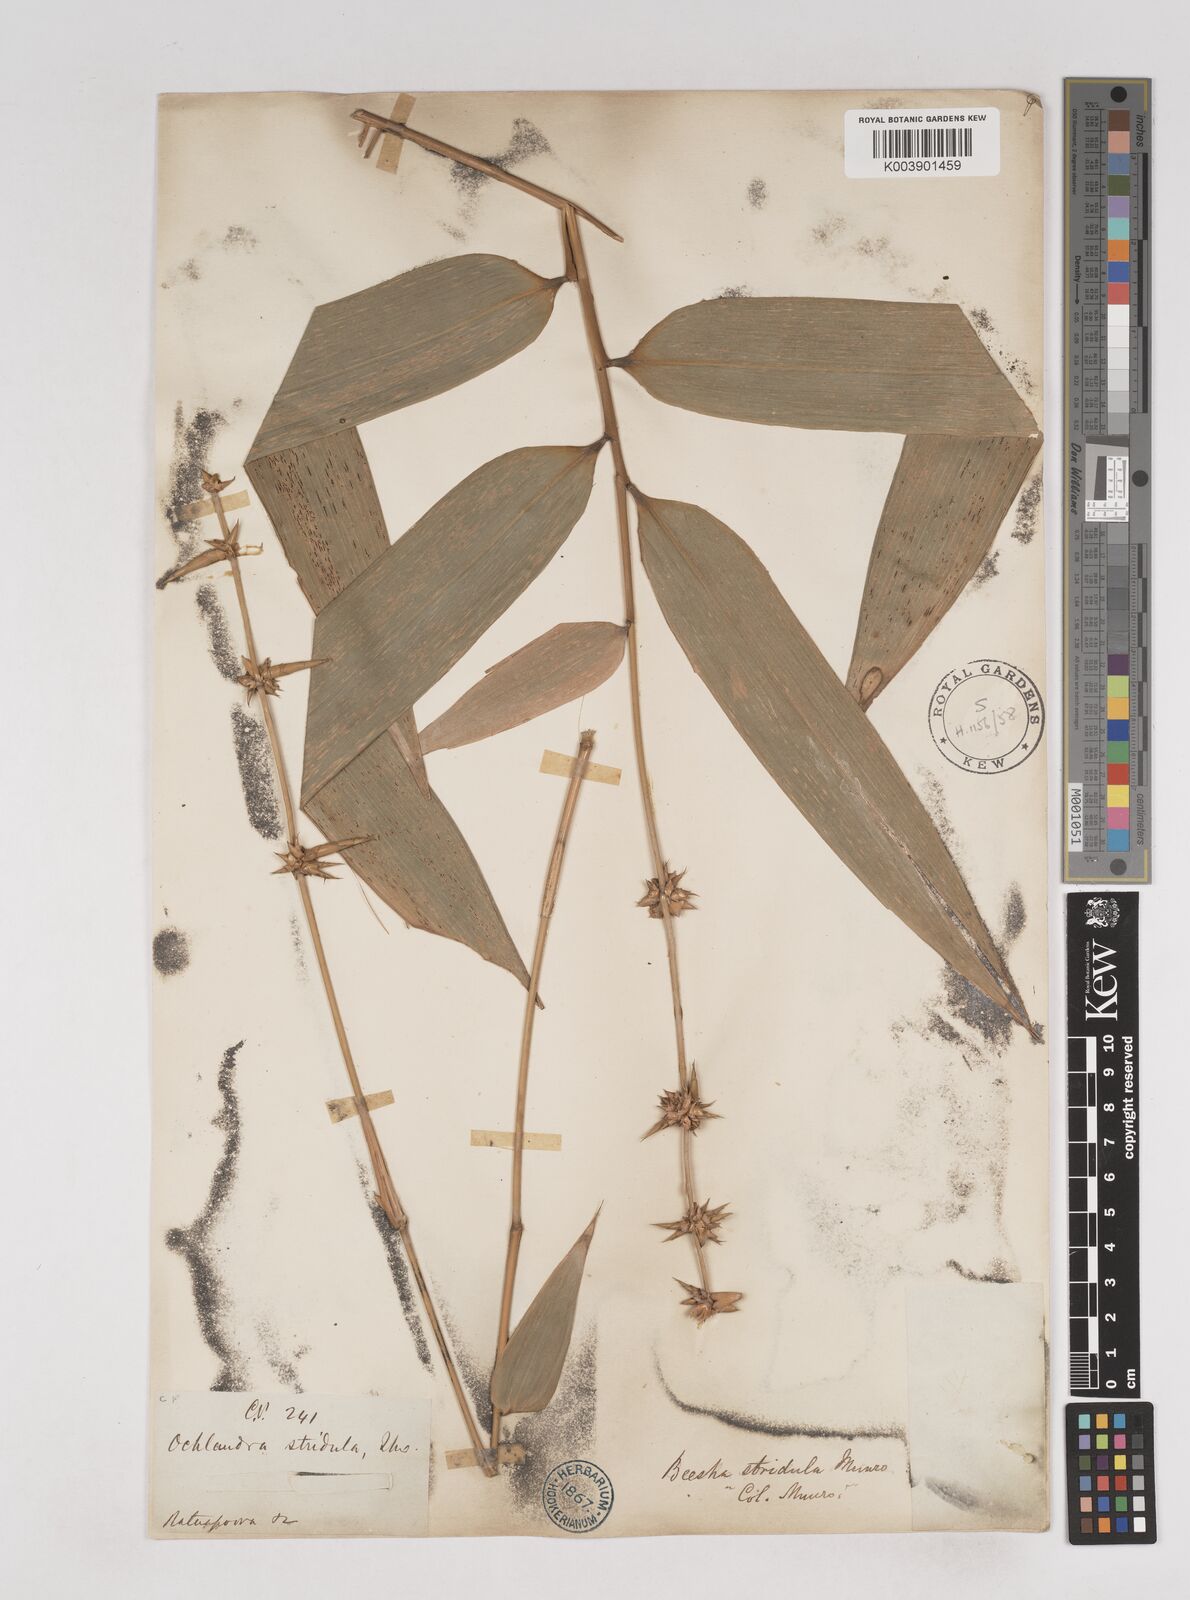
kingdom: Plantae
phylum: Tracheophyta
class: Liliopsida
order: Poales
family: Poaceae
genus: Ochlandra
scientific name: Ochlandra stridula
